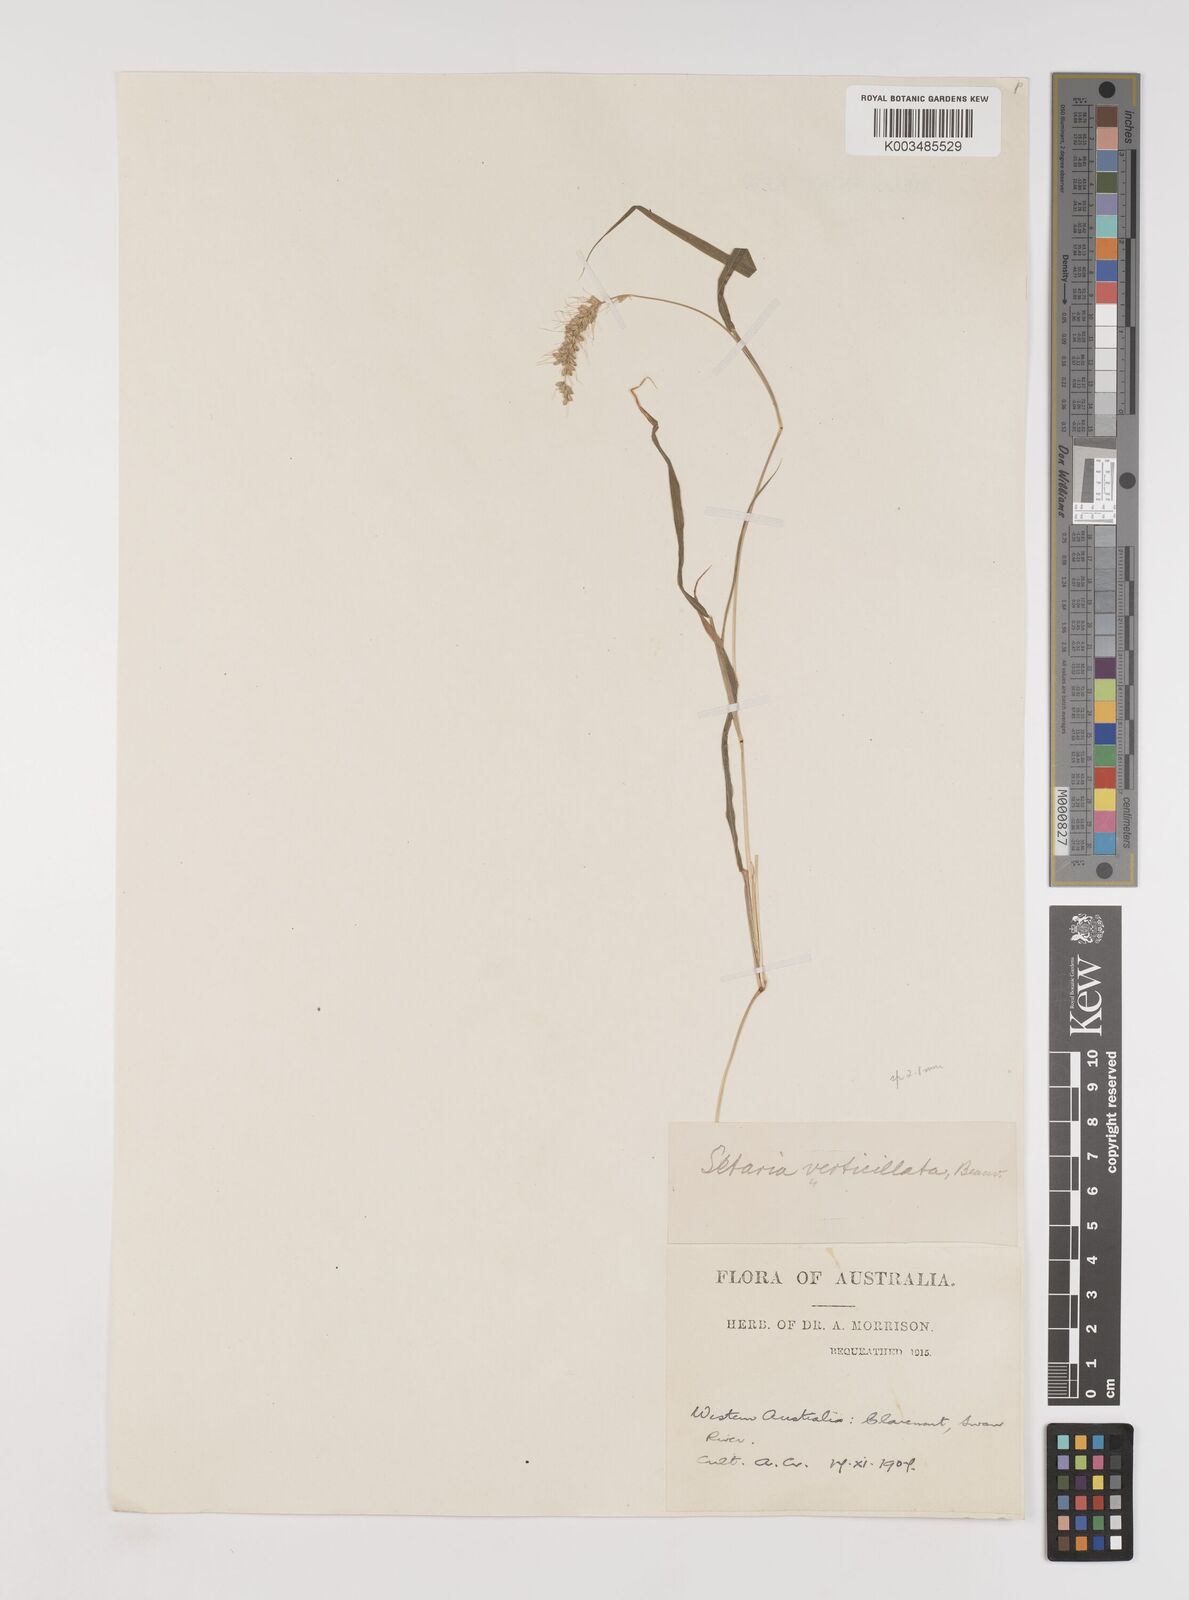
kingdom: Plantae
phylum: Tracheophyta
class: Liliopsida
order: Poales
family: Poaceae
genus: Setaria
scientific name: Setaria verticillata
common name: Hooked bristlegrass
